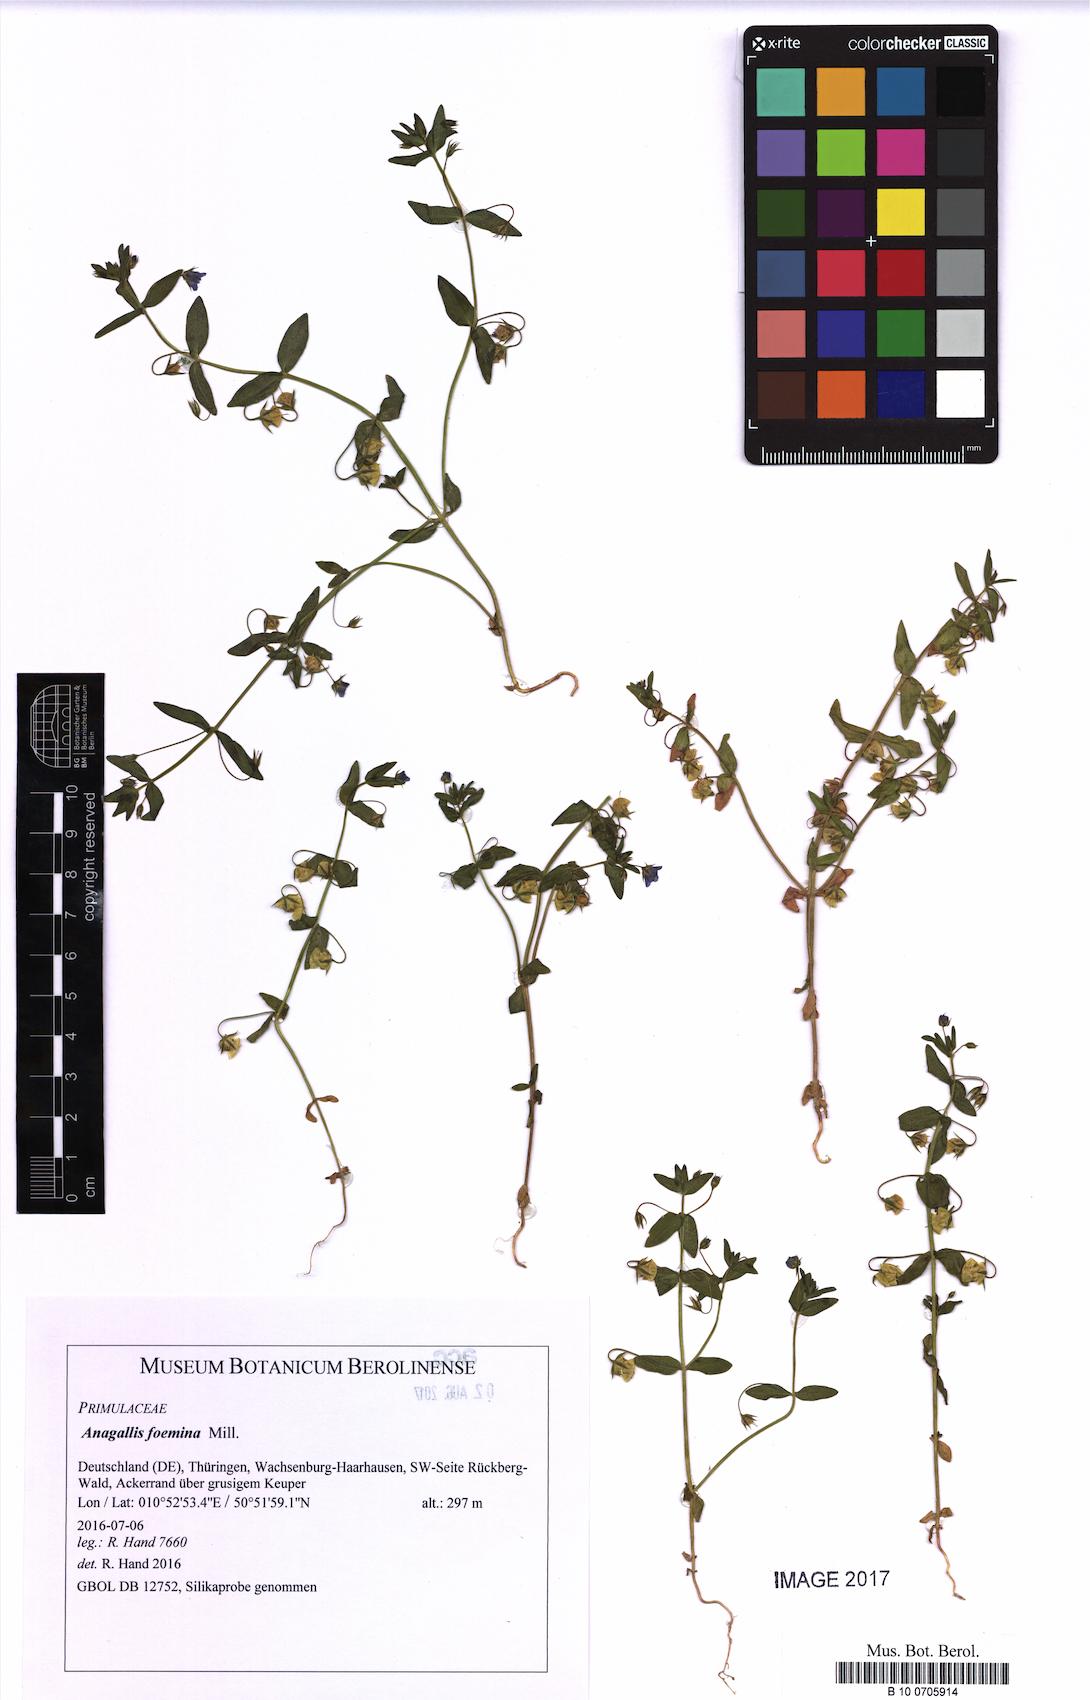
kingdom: Plantae
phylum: Tracheophyta
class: Magnoliopsida
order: Ericales
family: Primulaceae
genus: Lysimachia
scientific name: Lysimachia foemina
